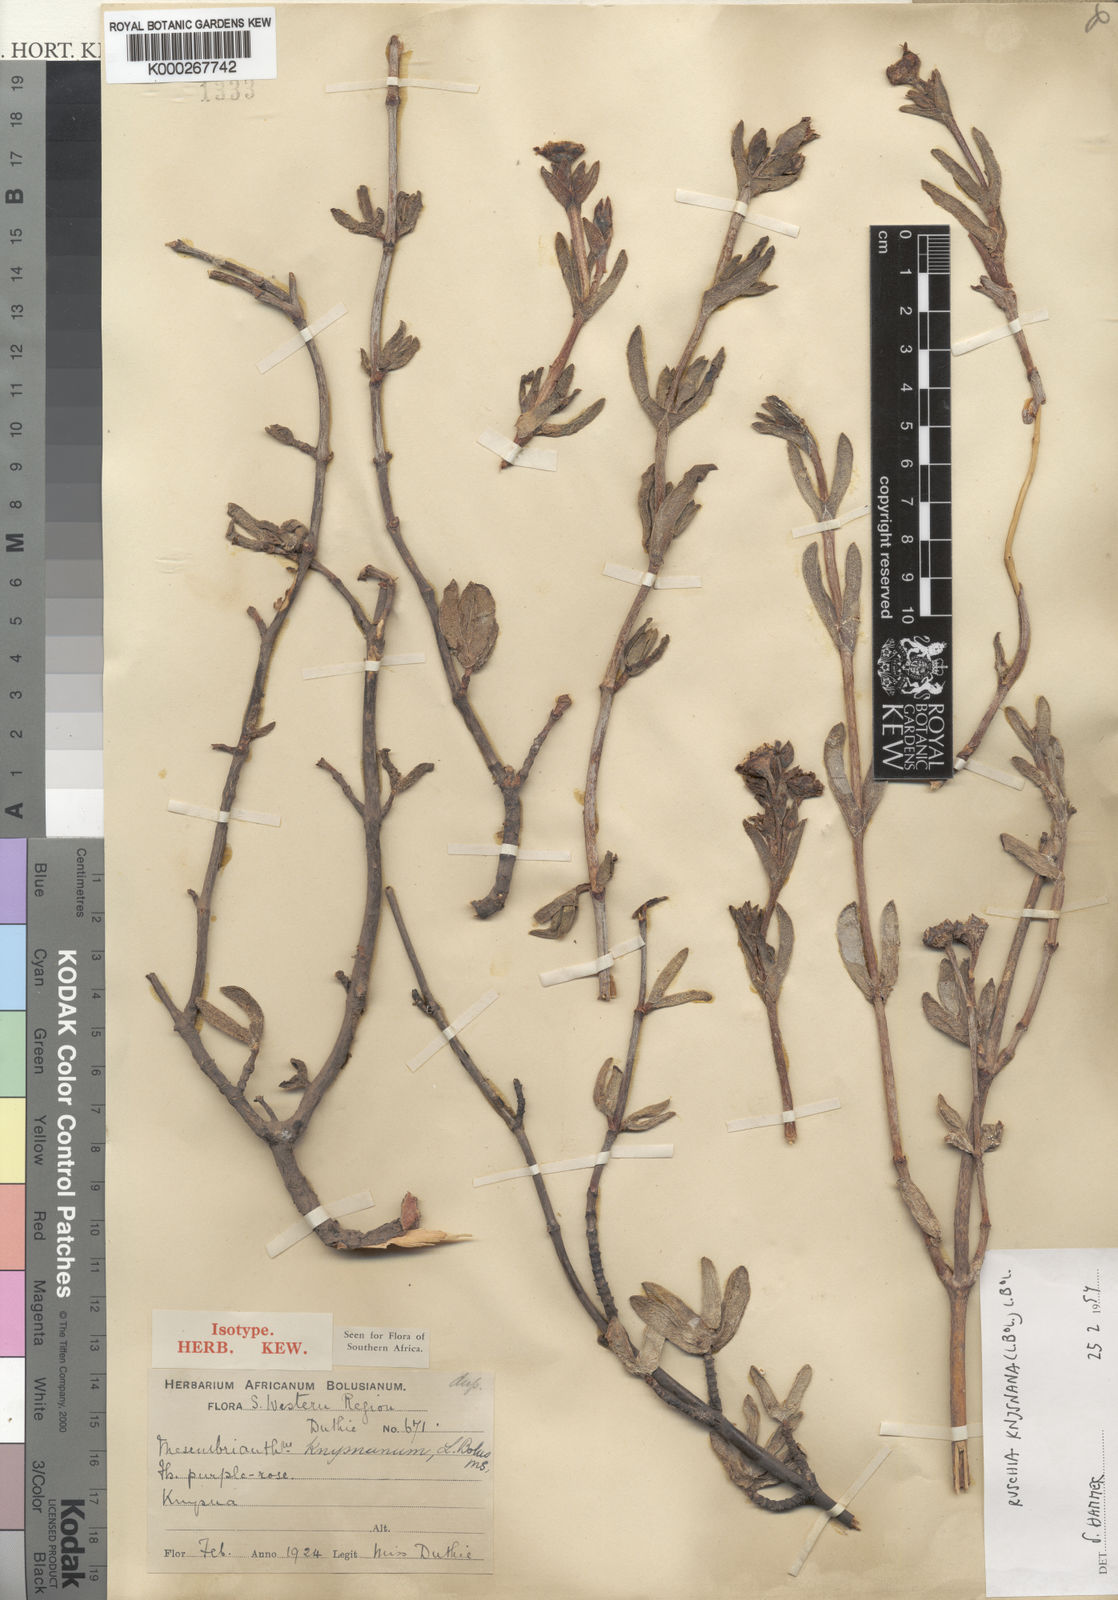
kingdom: Plantae
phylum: Tracheophyta
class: Magnoliopsida
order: Caryophyllales
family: Aizoaceae
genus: Esterhuysenia
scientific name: Esterhuysenia knysnana
